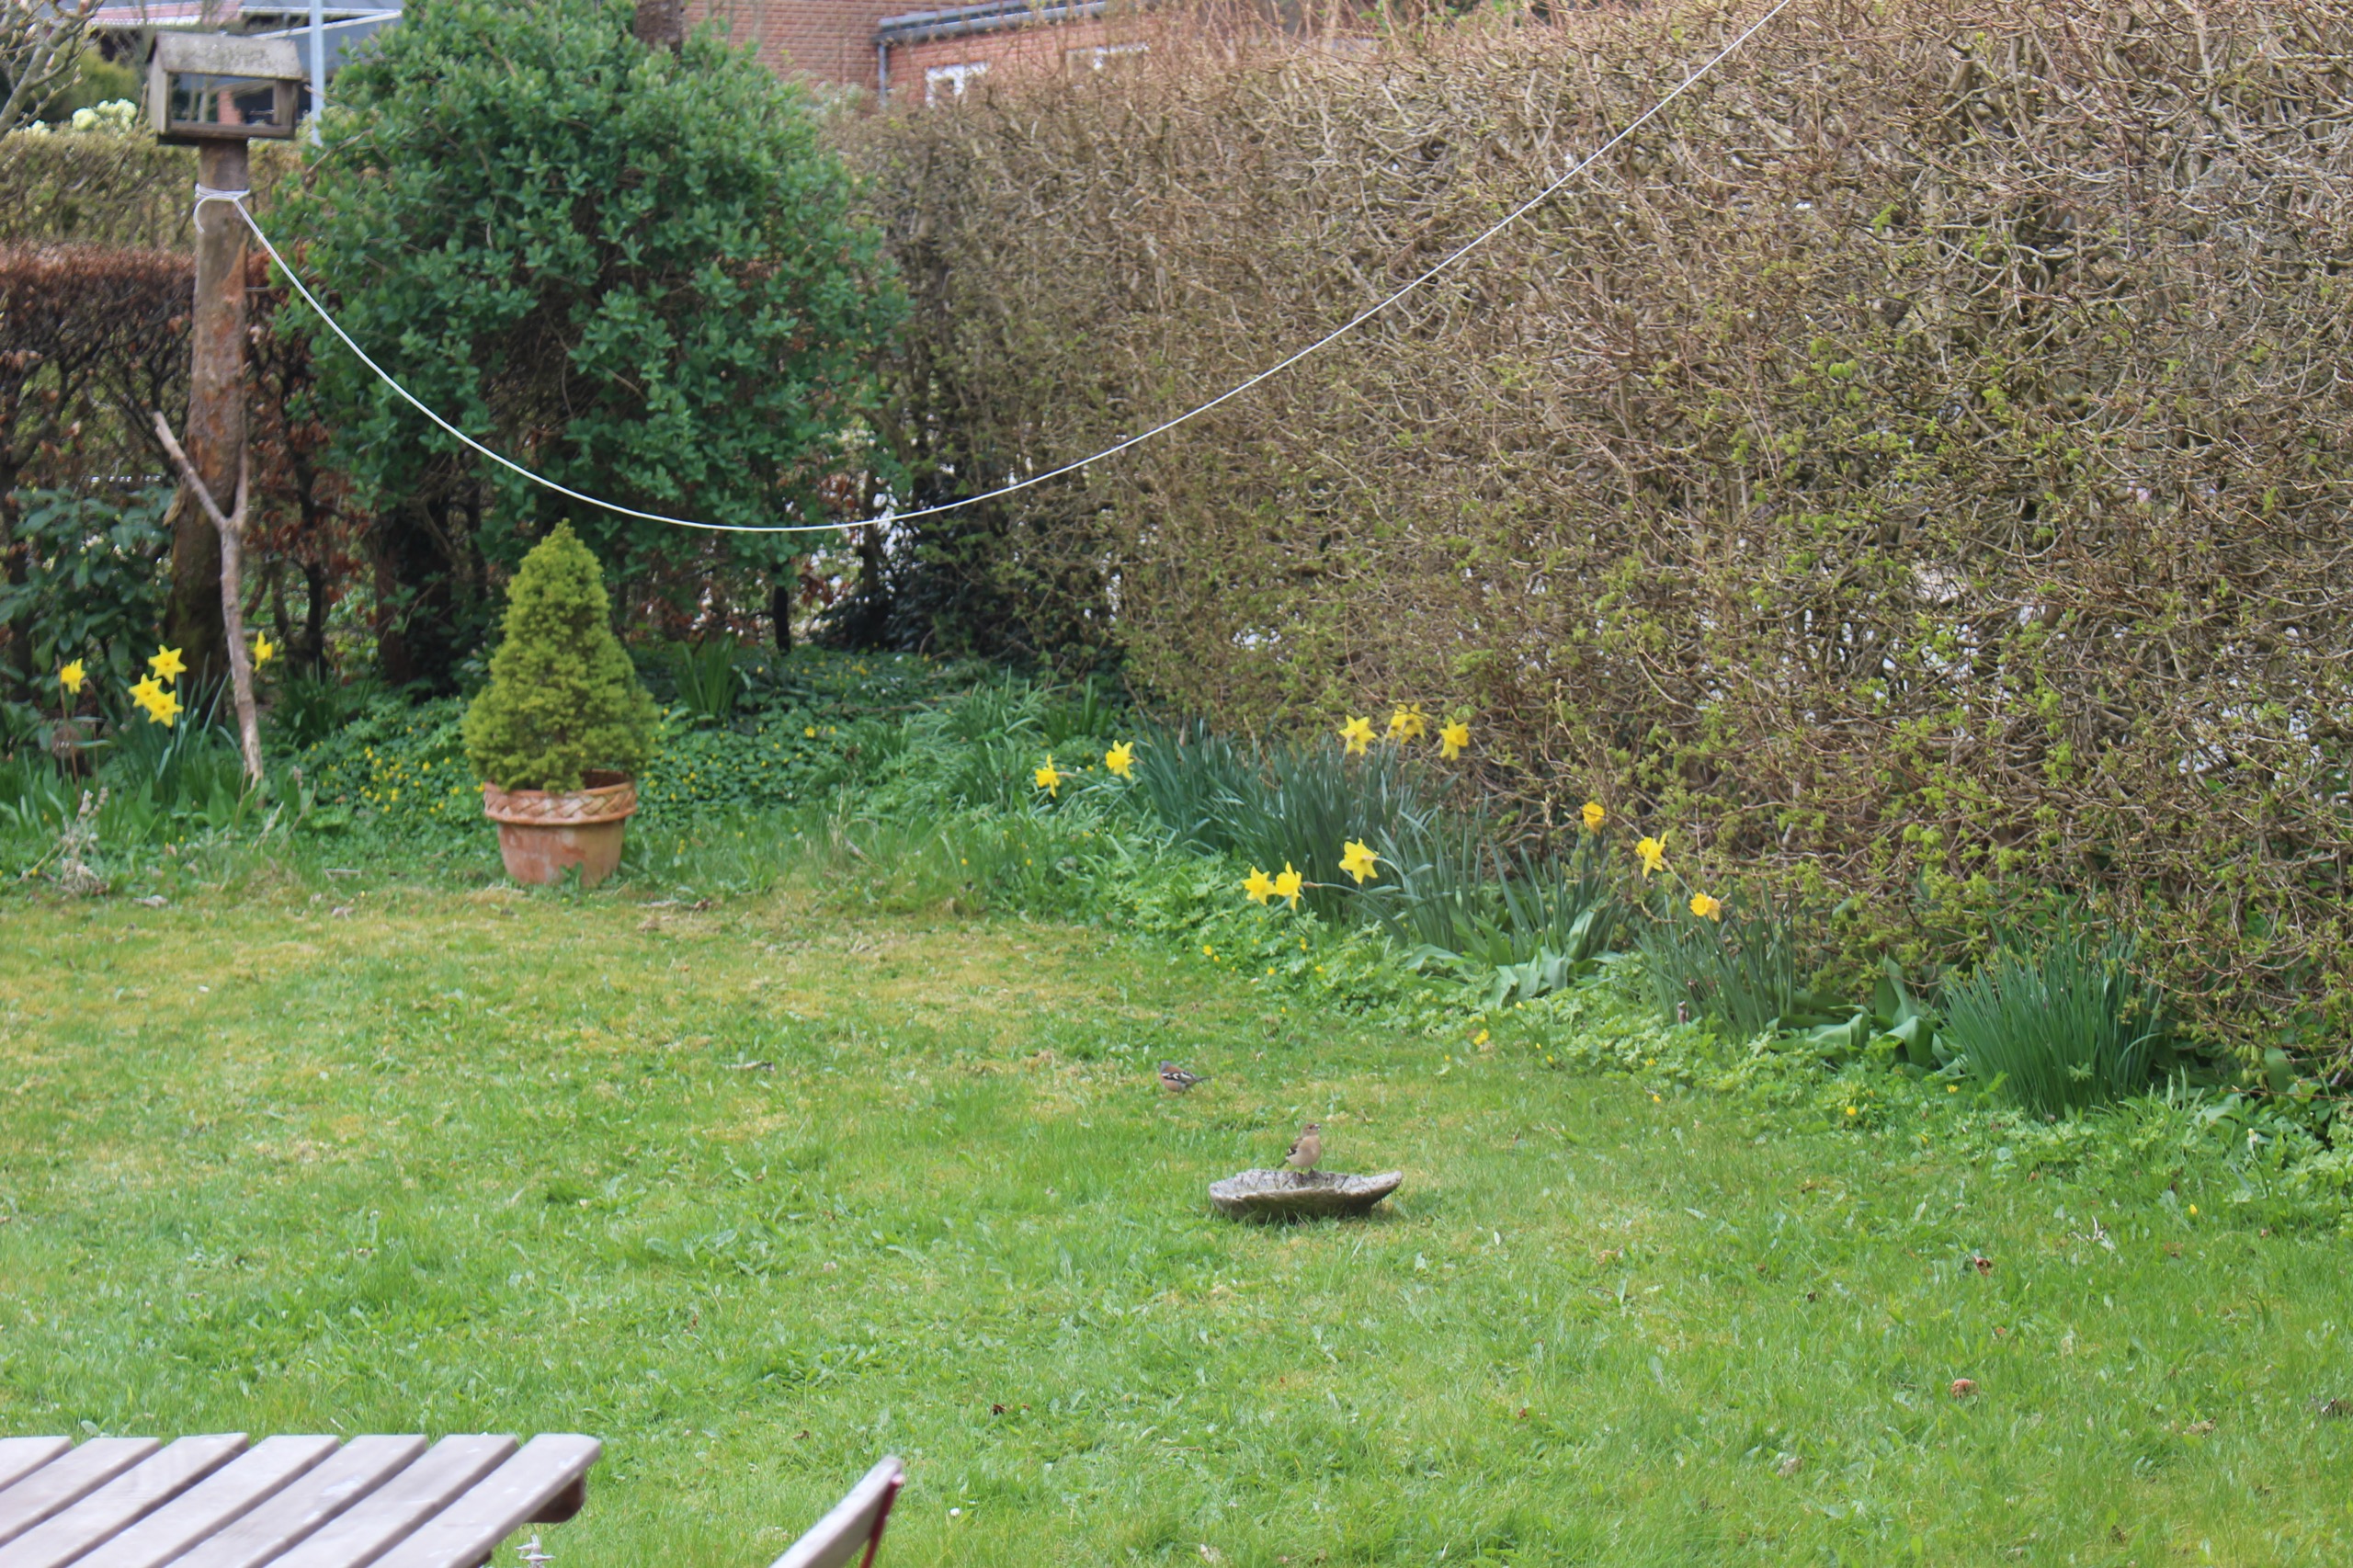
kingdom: Animalia
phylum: Chordata
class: Aves
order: Passeriformes
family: Fringillidae
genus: Fringilla
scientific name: Fringilla coelebs
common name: Bogfinke
